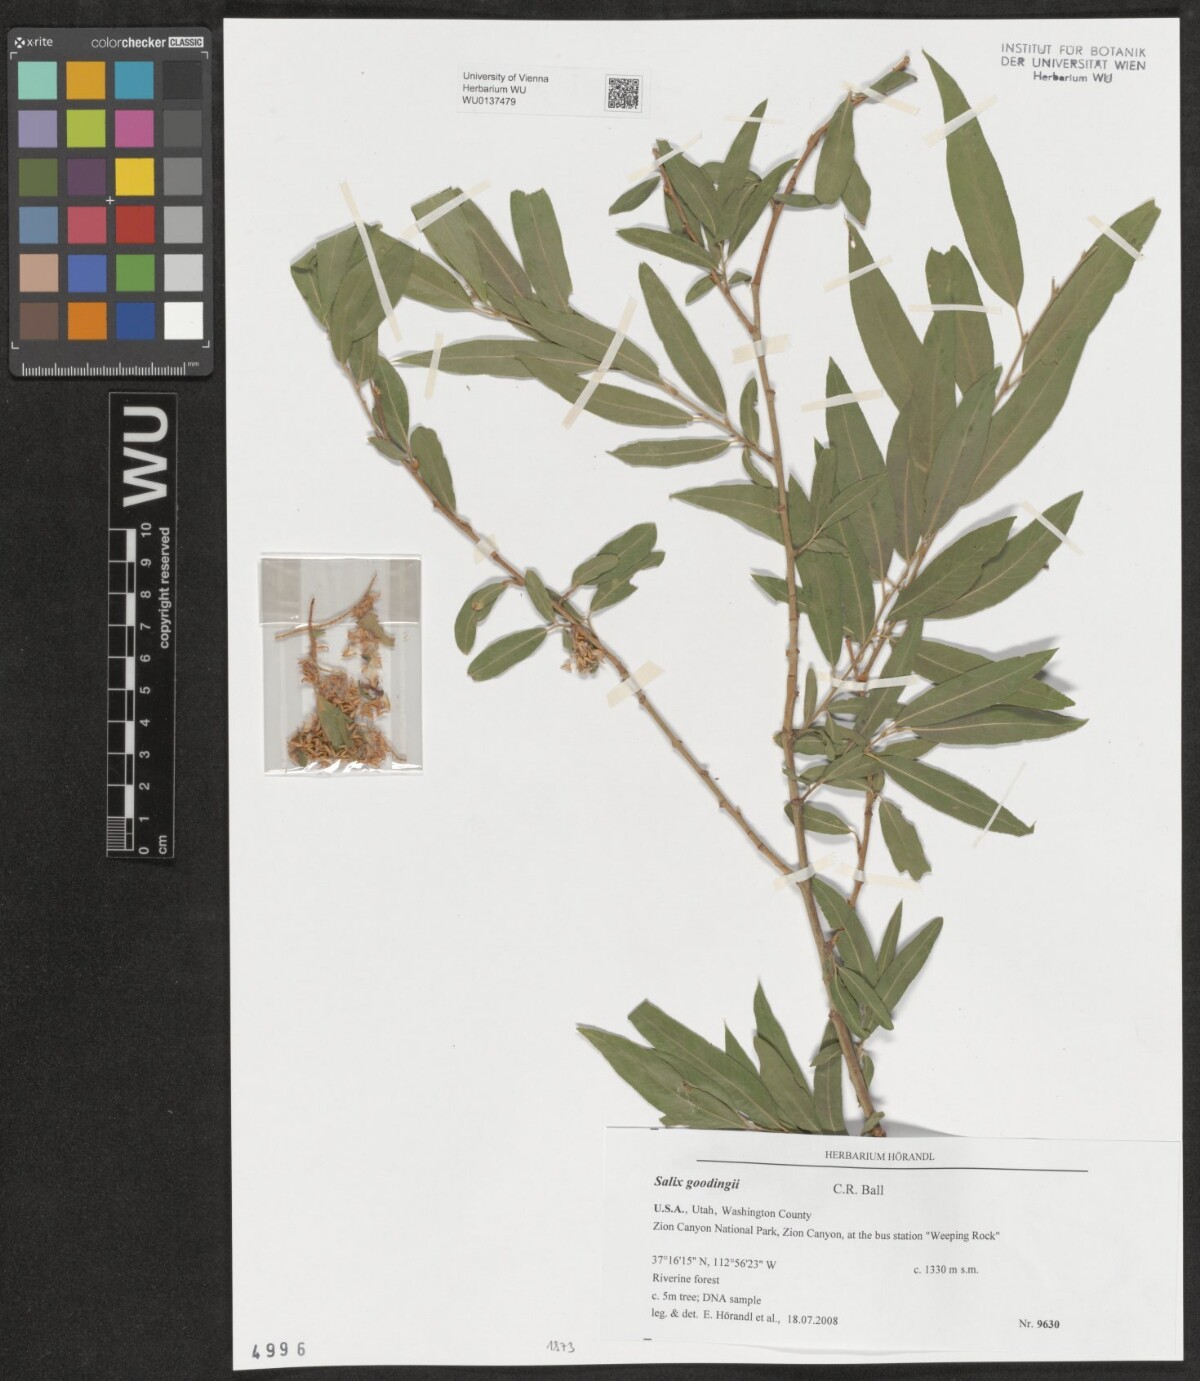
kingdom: Plantae
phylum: Tracheophyta
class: Magnoliopsida
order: Malpighiales
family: Salicaceae
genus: Salix
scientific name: Salix gooddingii
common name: Goodding's willow
